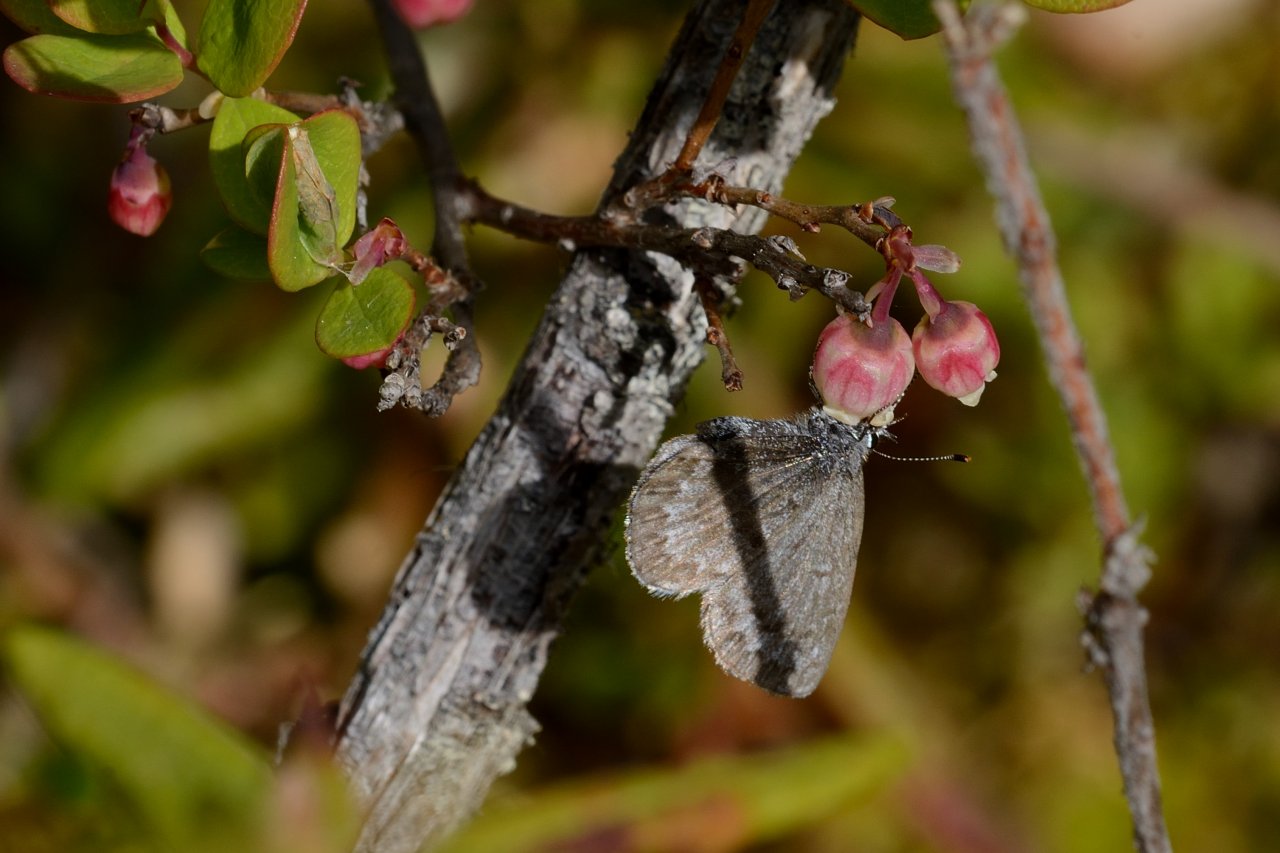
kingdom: Animalia
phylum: Arthropoda
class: Insecta
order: Lepidoptera
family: Lycaenidae
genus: Celastrina
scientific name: Celastrina
